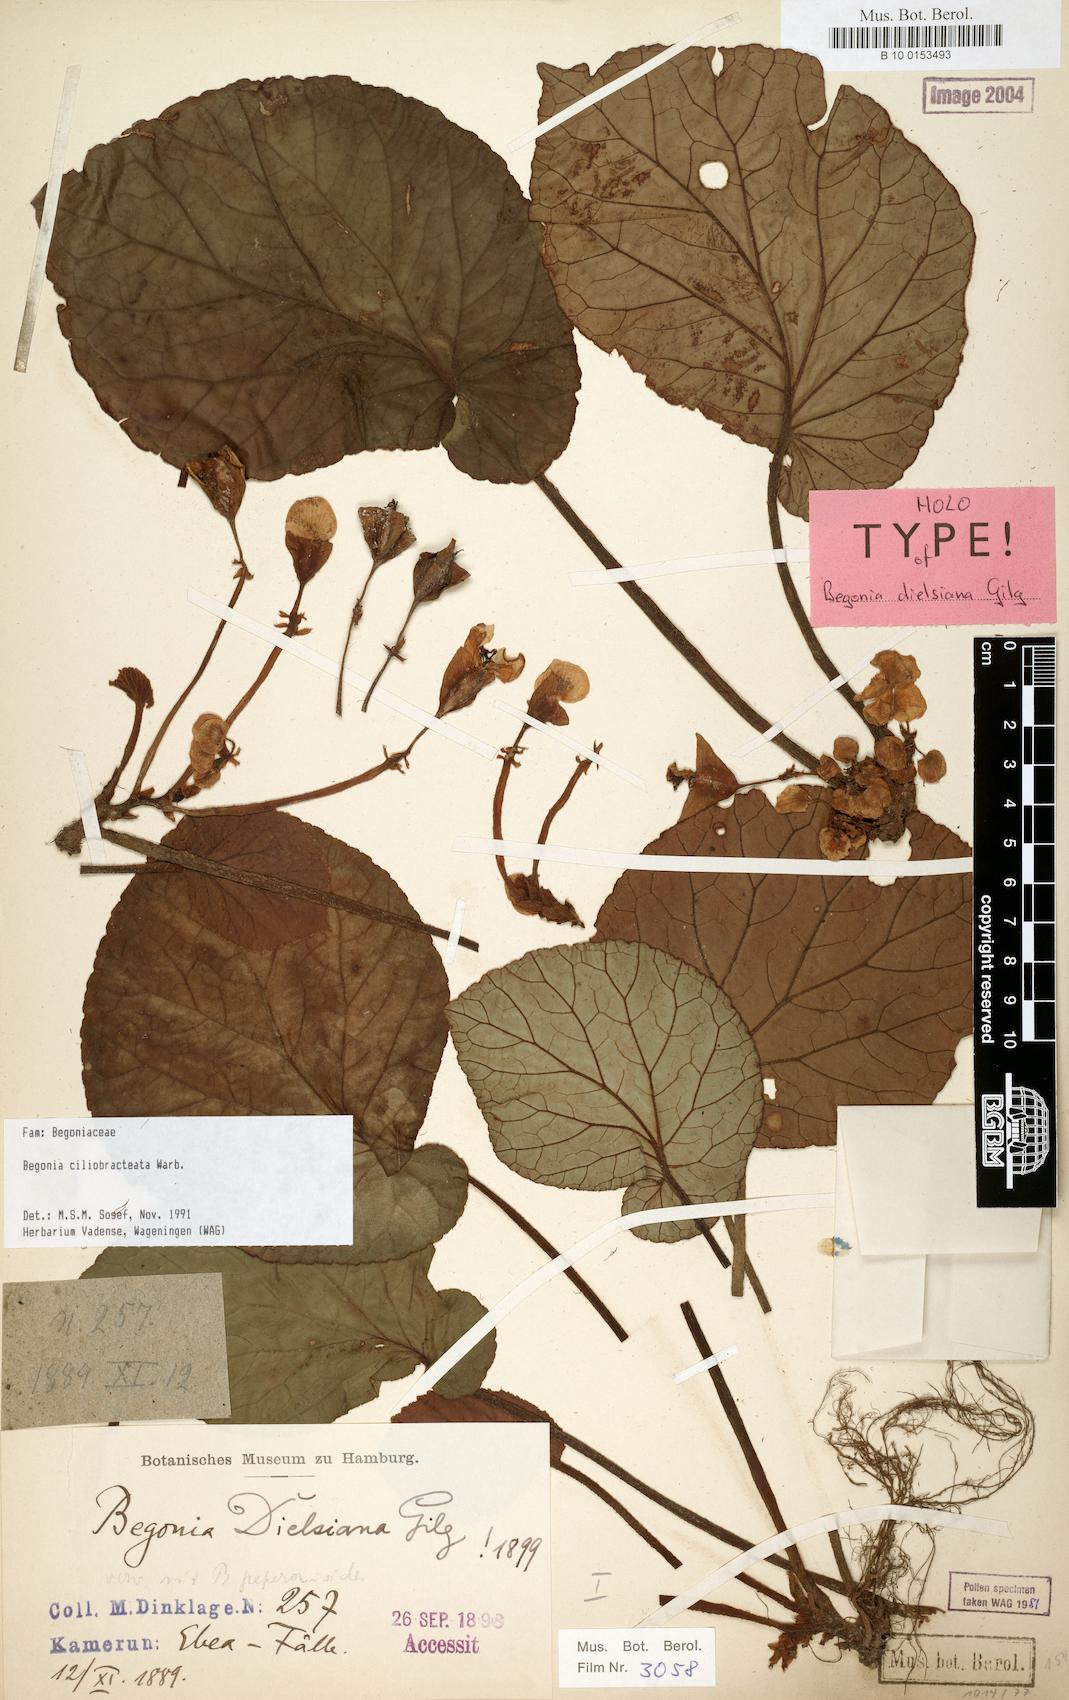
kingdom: Plantae
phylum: Tracheophyta
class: Magnoliopsida
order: Cucurbitales
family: Begoniaceae
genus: Begonia
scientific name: Begonia ciliobracteata
